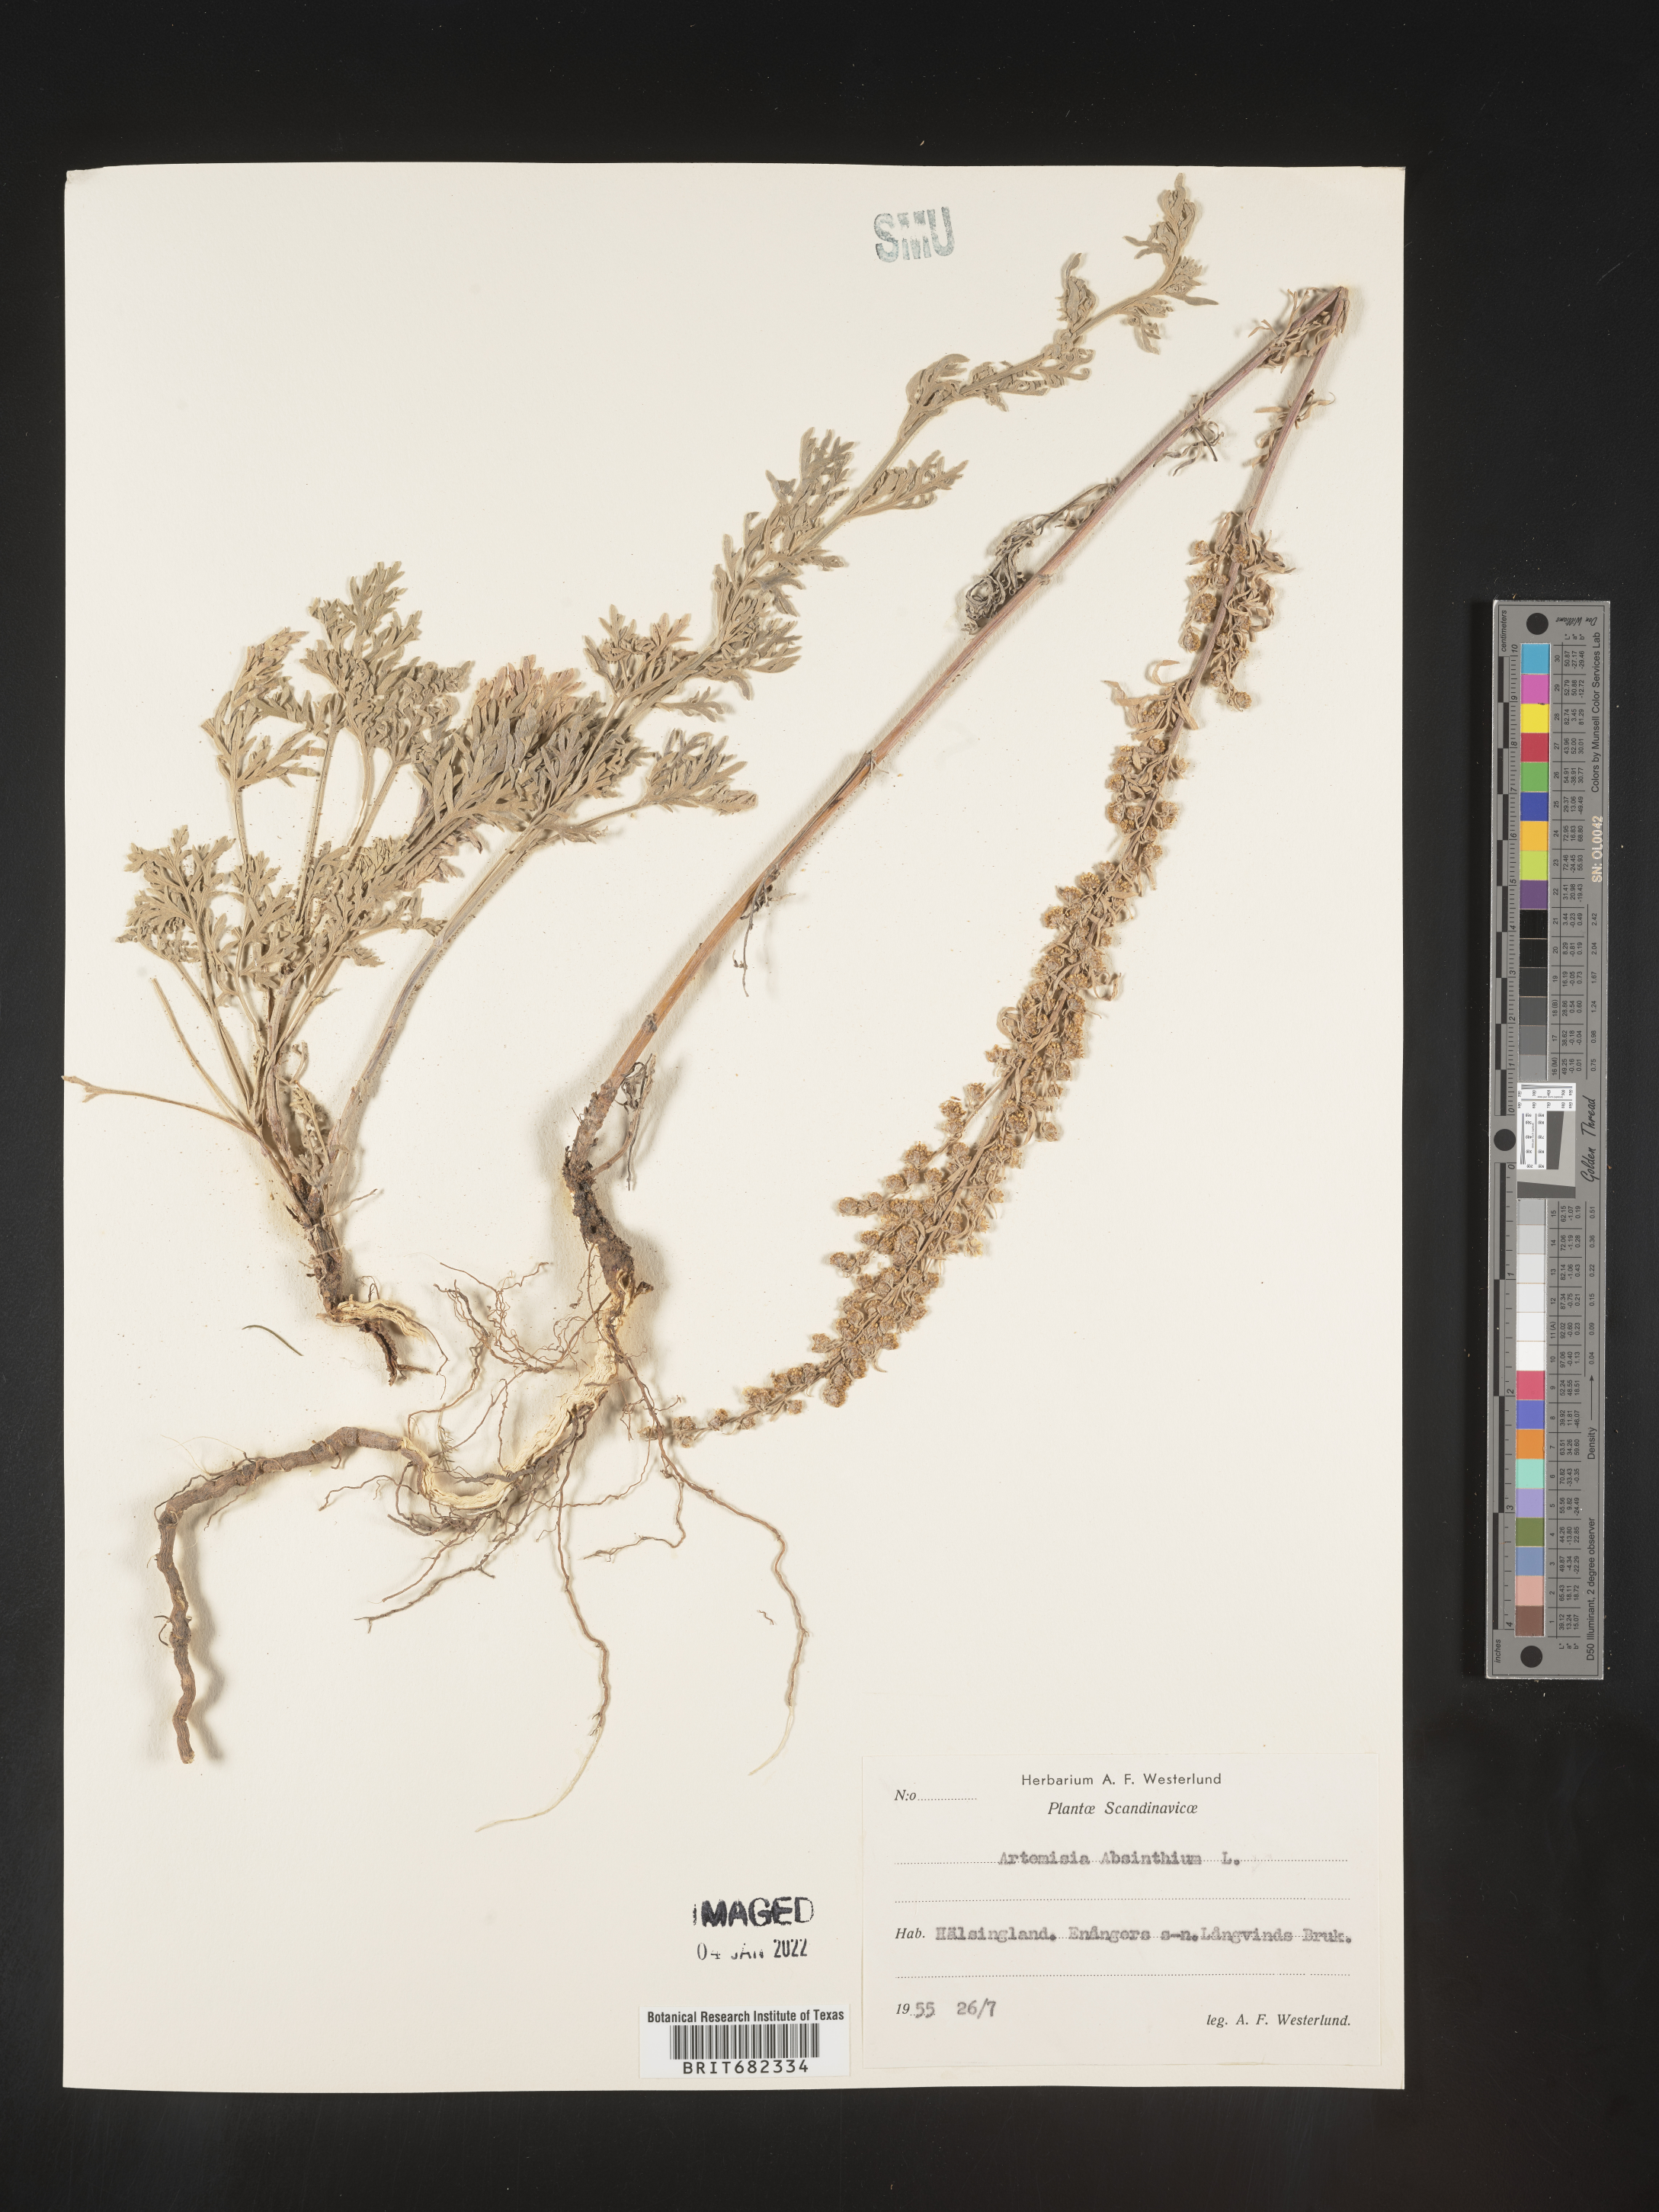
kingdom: Plantae
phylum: Tracheophyta
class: Magnoliopsida
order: Asterales
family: Asteraceae
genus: Artemisia
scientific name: Artemisia
